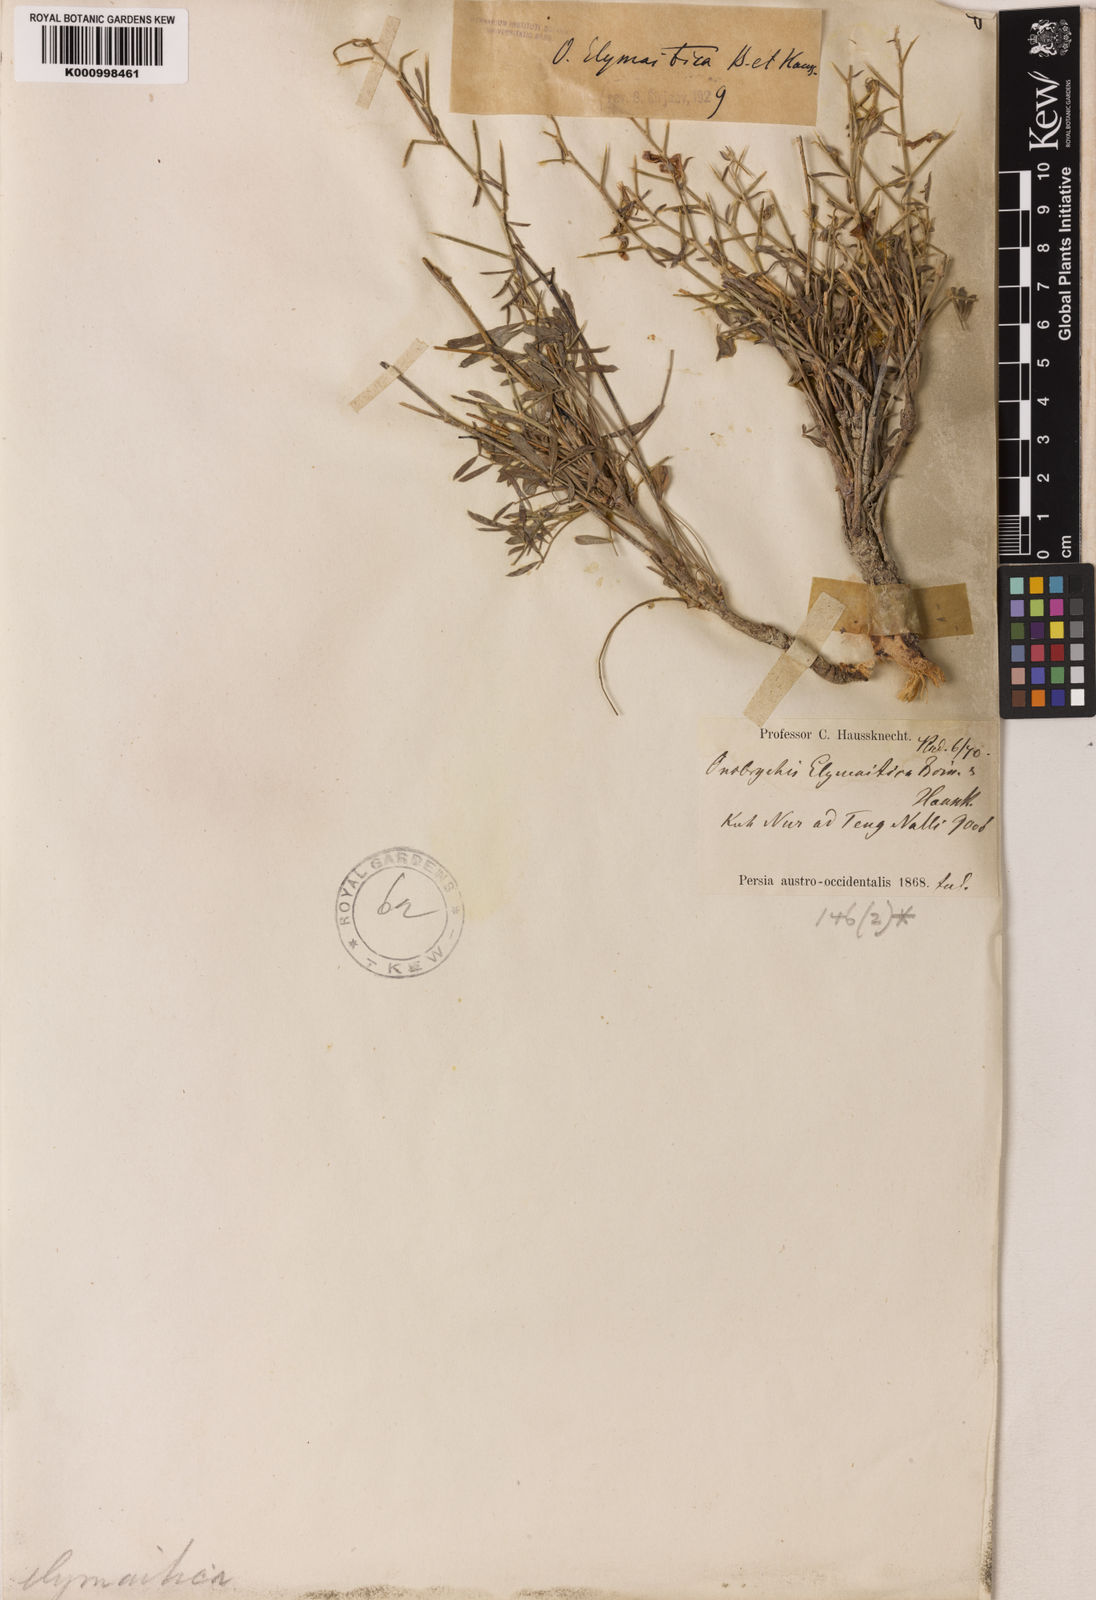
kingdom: Plantae
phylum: Tracheophyta
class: Magnoliopsida
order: Fabales
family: Fabaceae
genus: Onobrychis
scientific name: Onobrychis elymaitica
